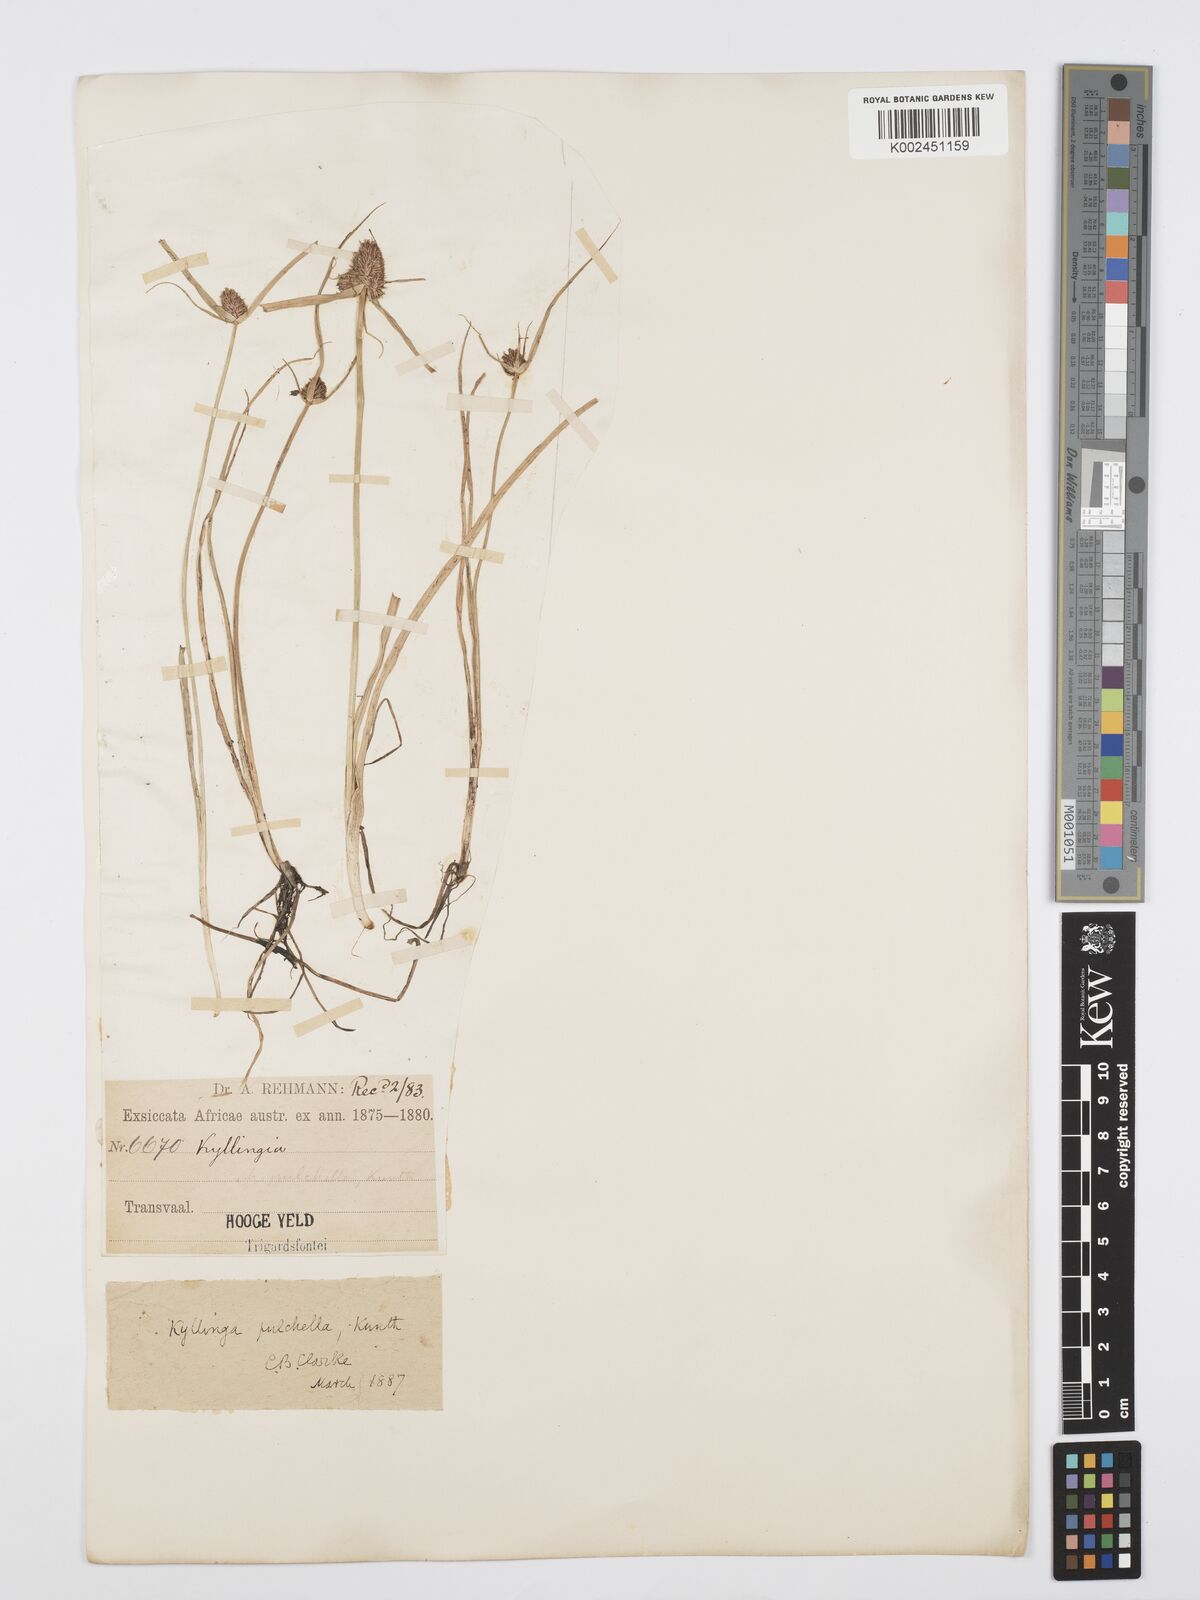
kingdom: Plantae
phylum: Tracheophyta
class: Liliopsida
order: Poales
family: Cyperaceae
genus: Cyperus
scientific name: Cyperus
